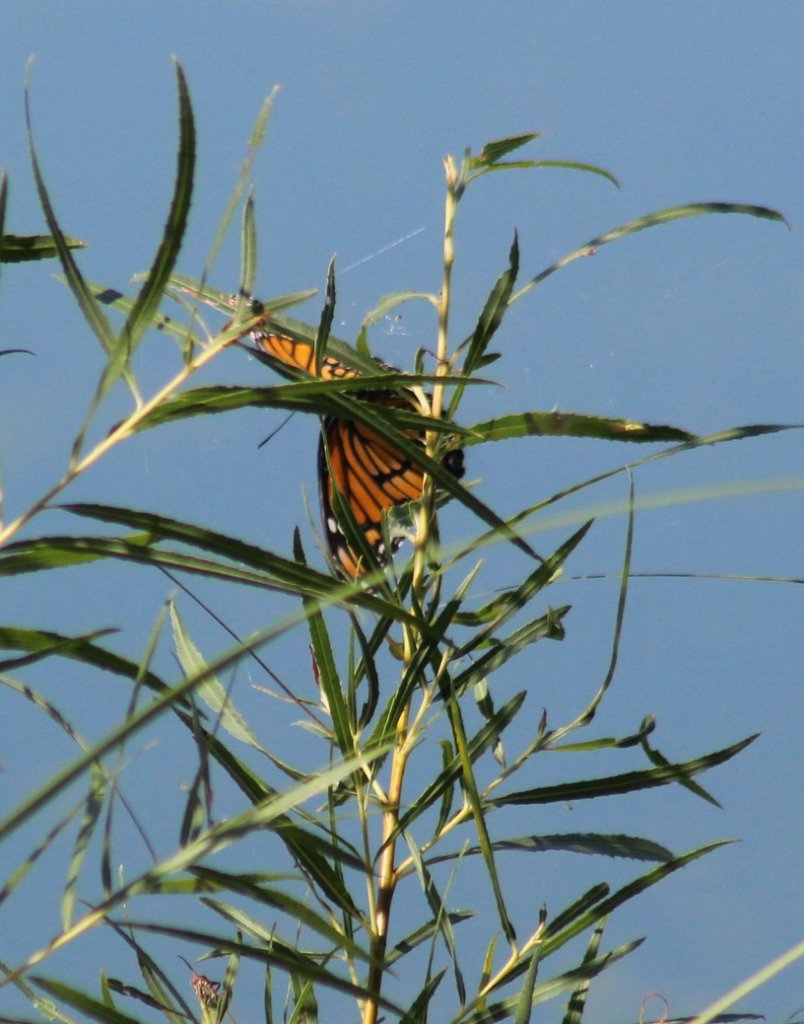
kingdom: Animalia
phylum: Arthropoda
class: Insecta
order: Lepidoptera
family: Nymphalidae
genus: Limenitis
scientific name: Limenitis archippus
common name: Viceroy
